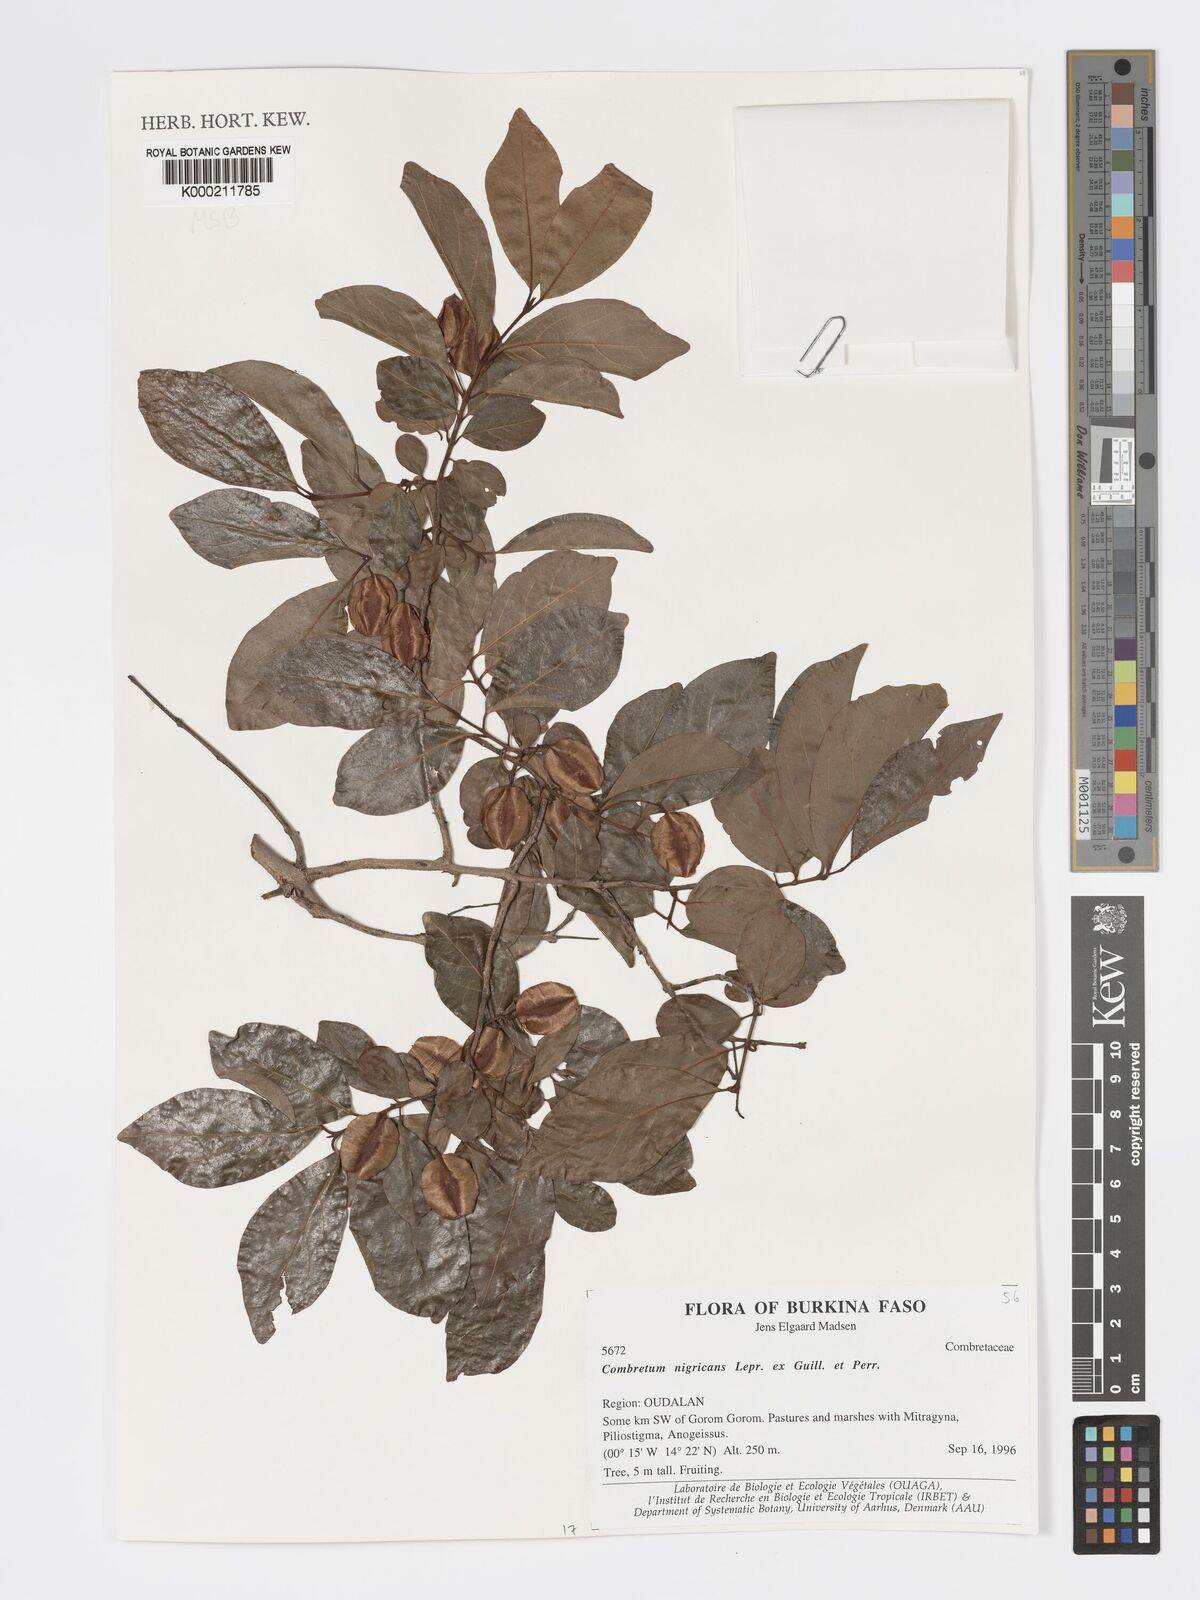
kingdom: Plantae
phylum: Tracheophyta
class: Magnoliopsida
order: Myrtales
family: Combretaceae
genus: Combretum
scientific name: Combretum nigricans
